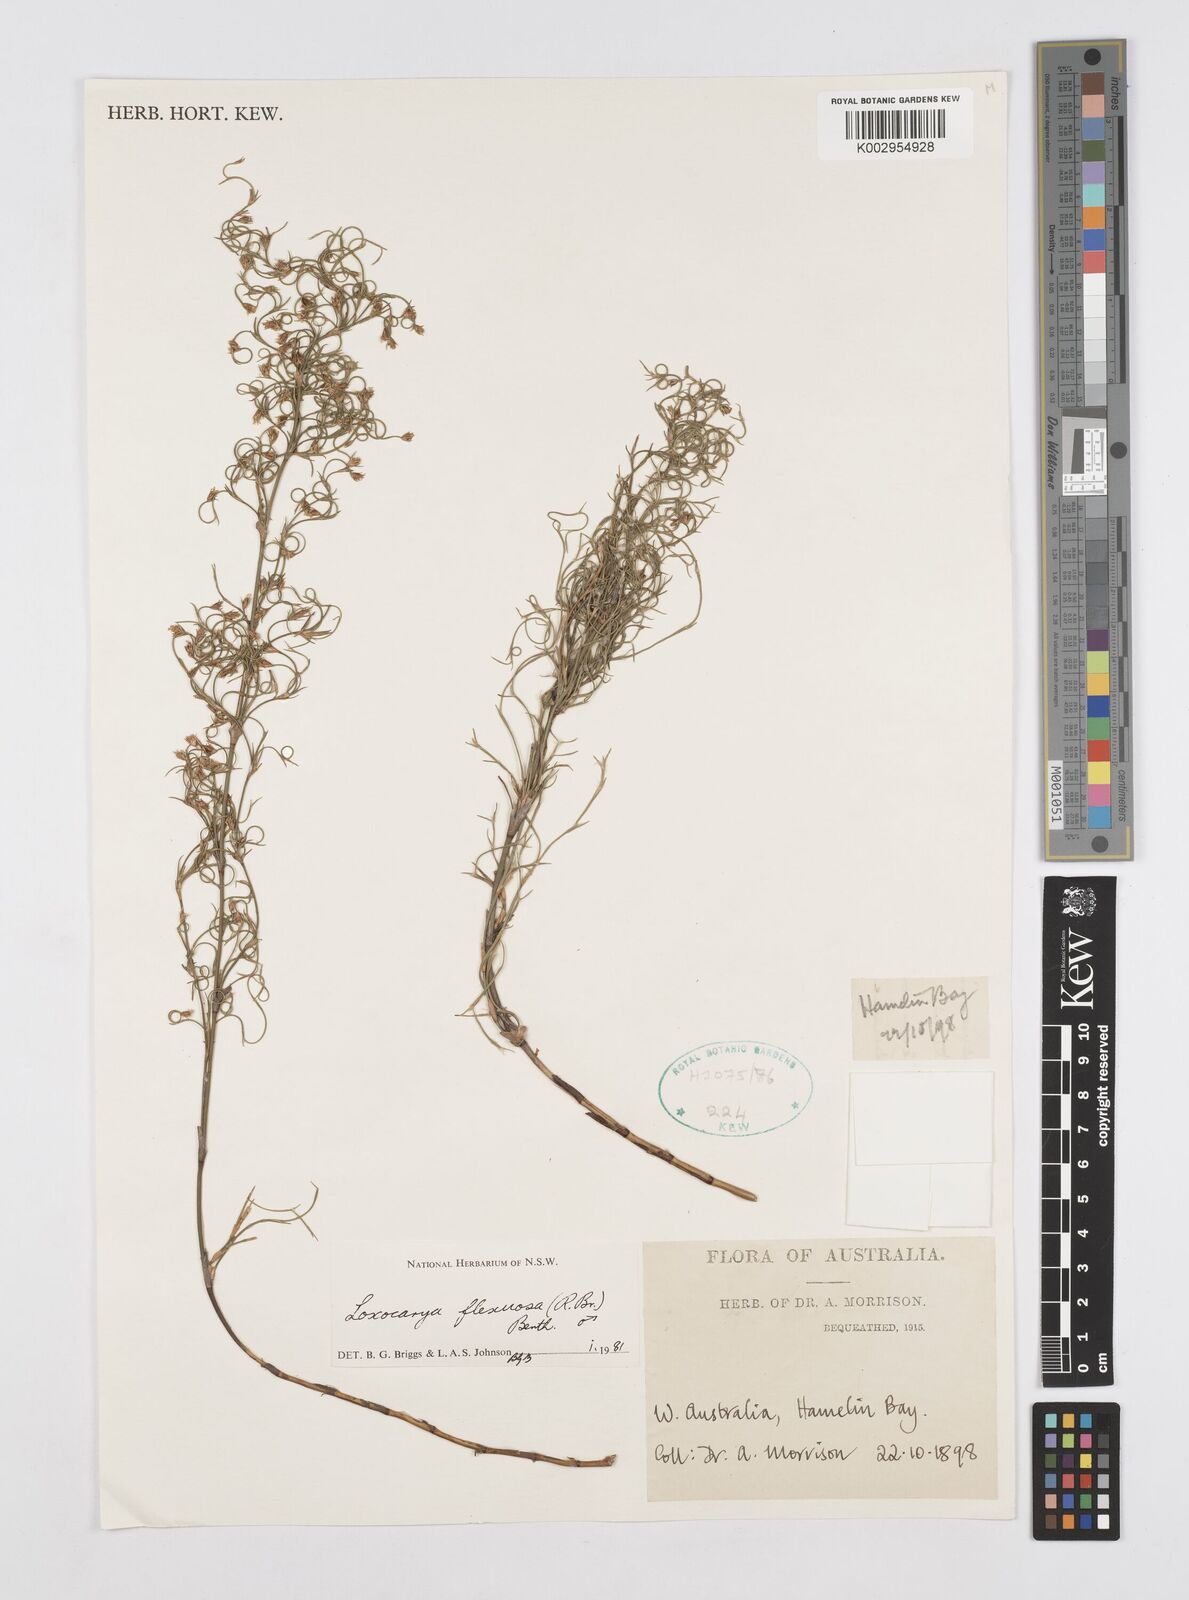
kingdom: Plantae
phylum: Tracheophyta
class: Liliopsida
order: Poales
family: Restionaceae
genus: Desmocladus
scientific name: Desmocladus flexuosus
